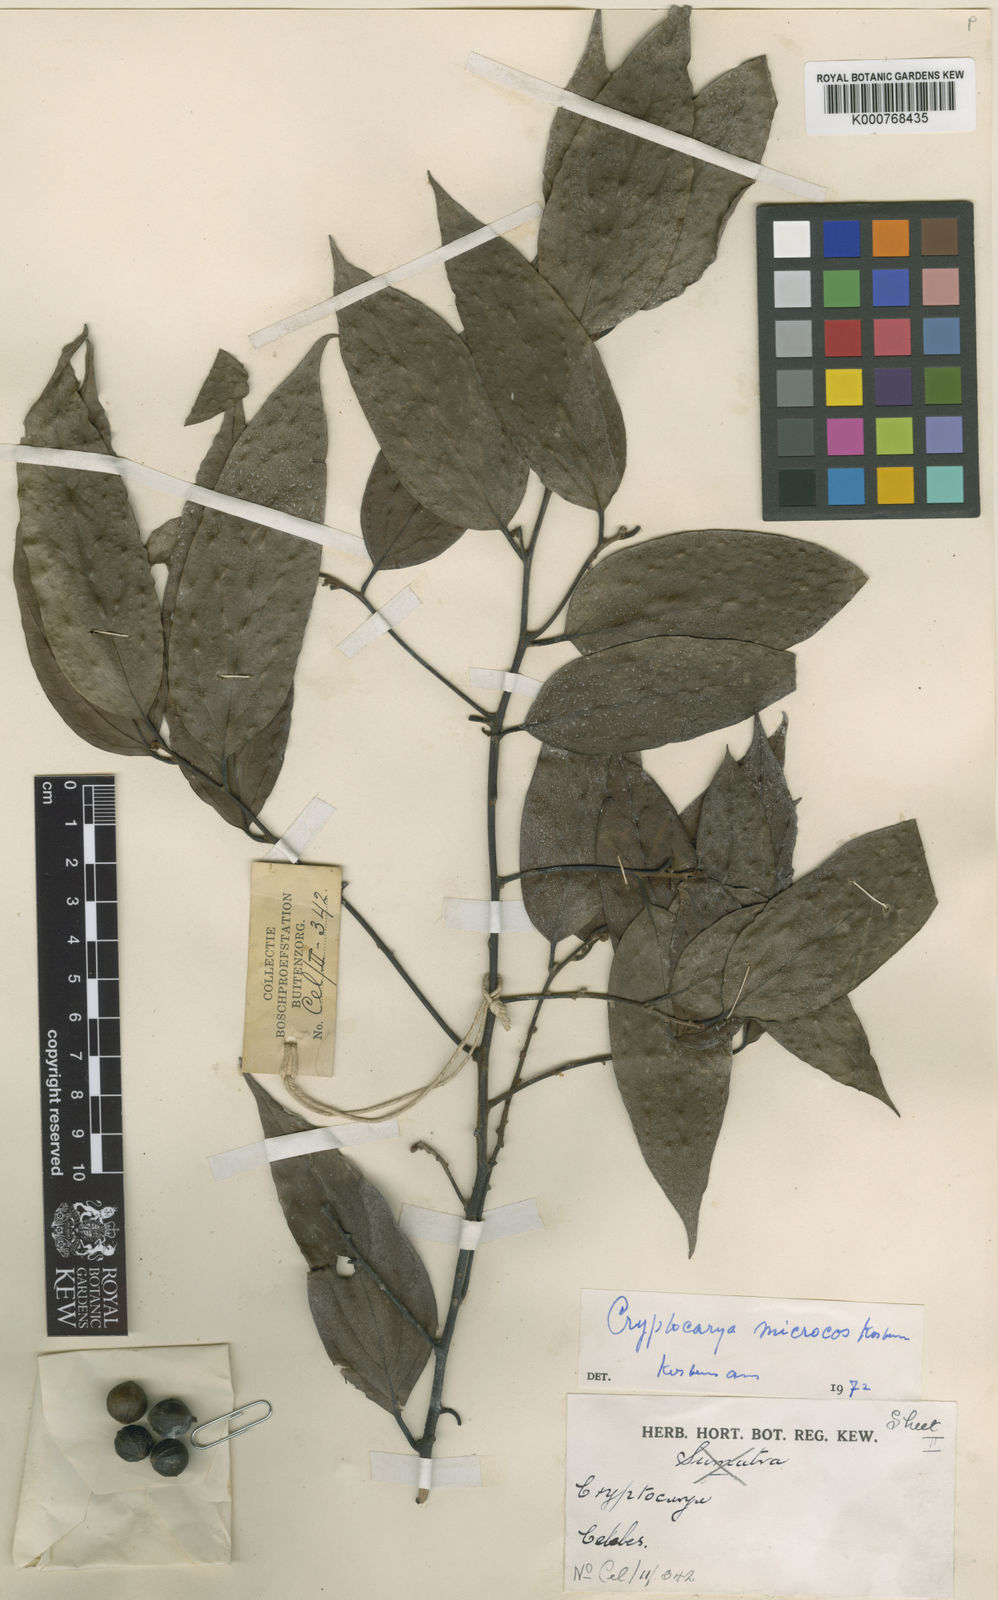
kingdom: Plantae
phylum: Tracheophyta
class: Magnoliopsida
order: Laurales
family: Lauraceae
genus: Cryptocarya
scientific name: Cryptocarya microcos
